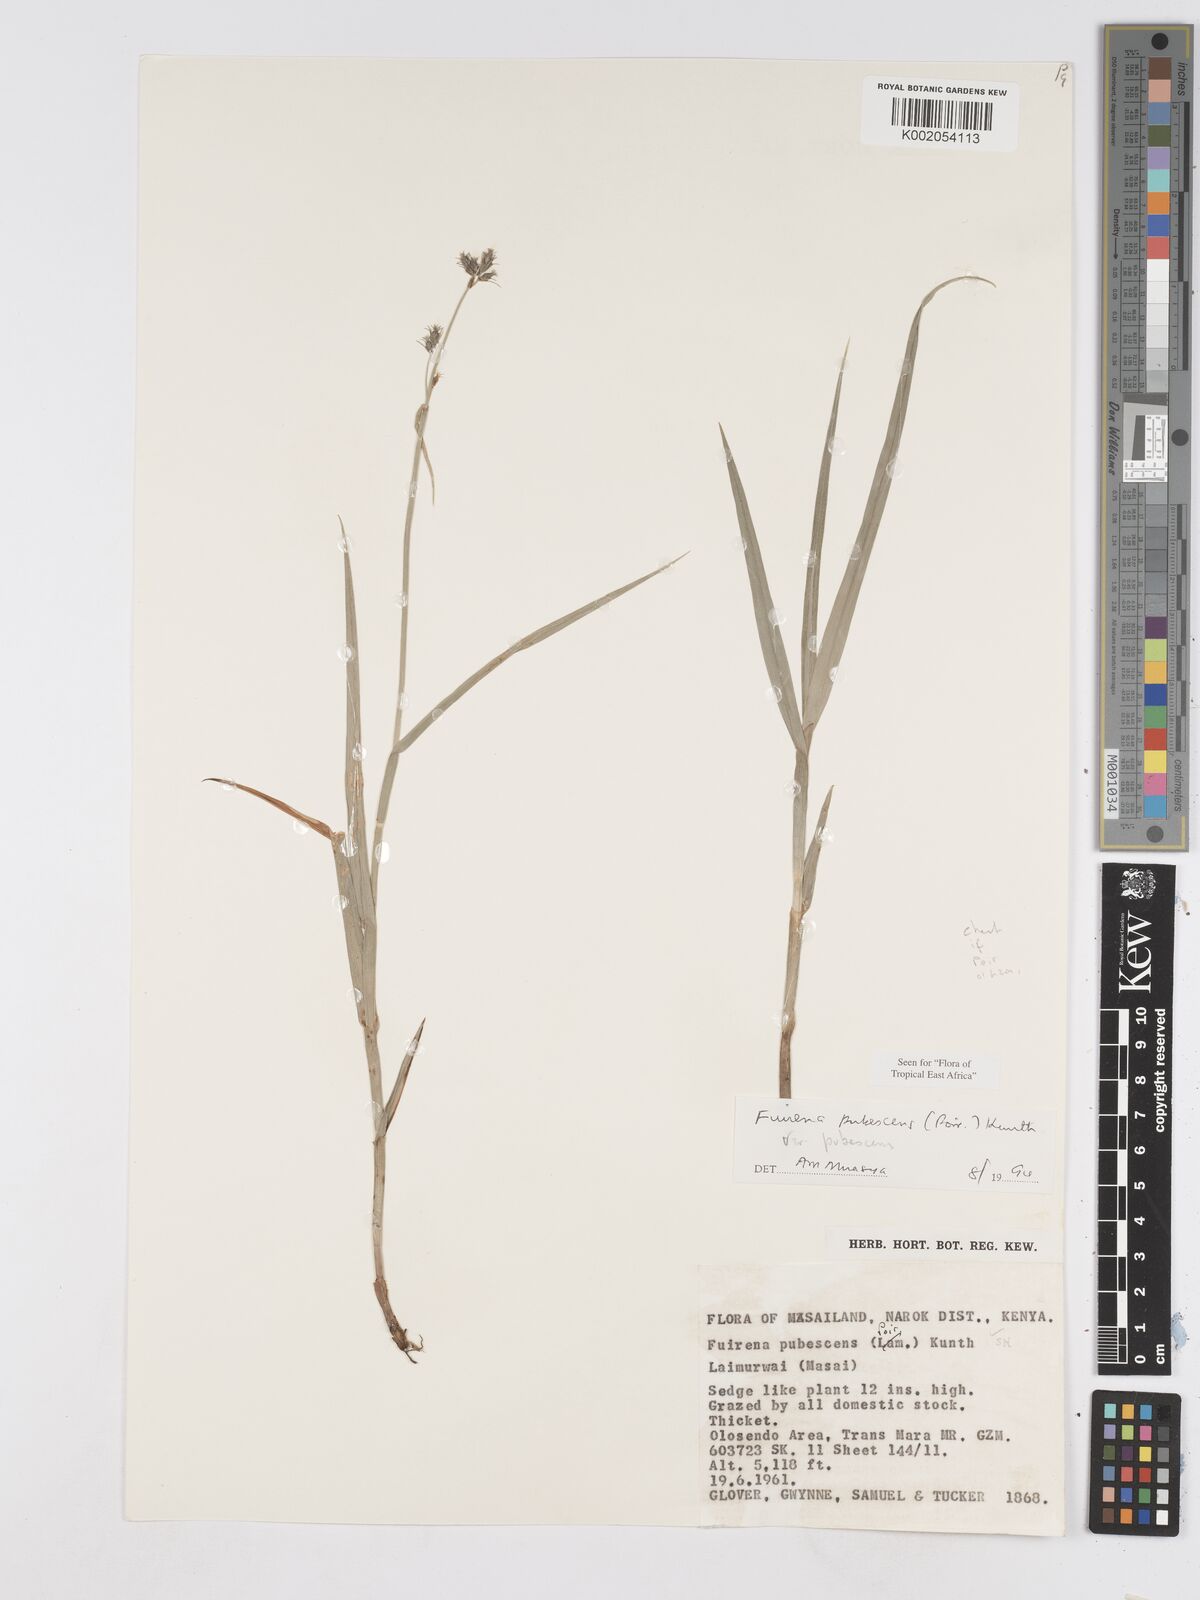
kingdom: Plantae
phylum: Tracheophyta
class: Liliopsida
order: Poales
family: Cyperaceae
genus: Fuirena
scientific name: Fuirena pubescens
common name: Hairy sedge
